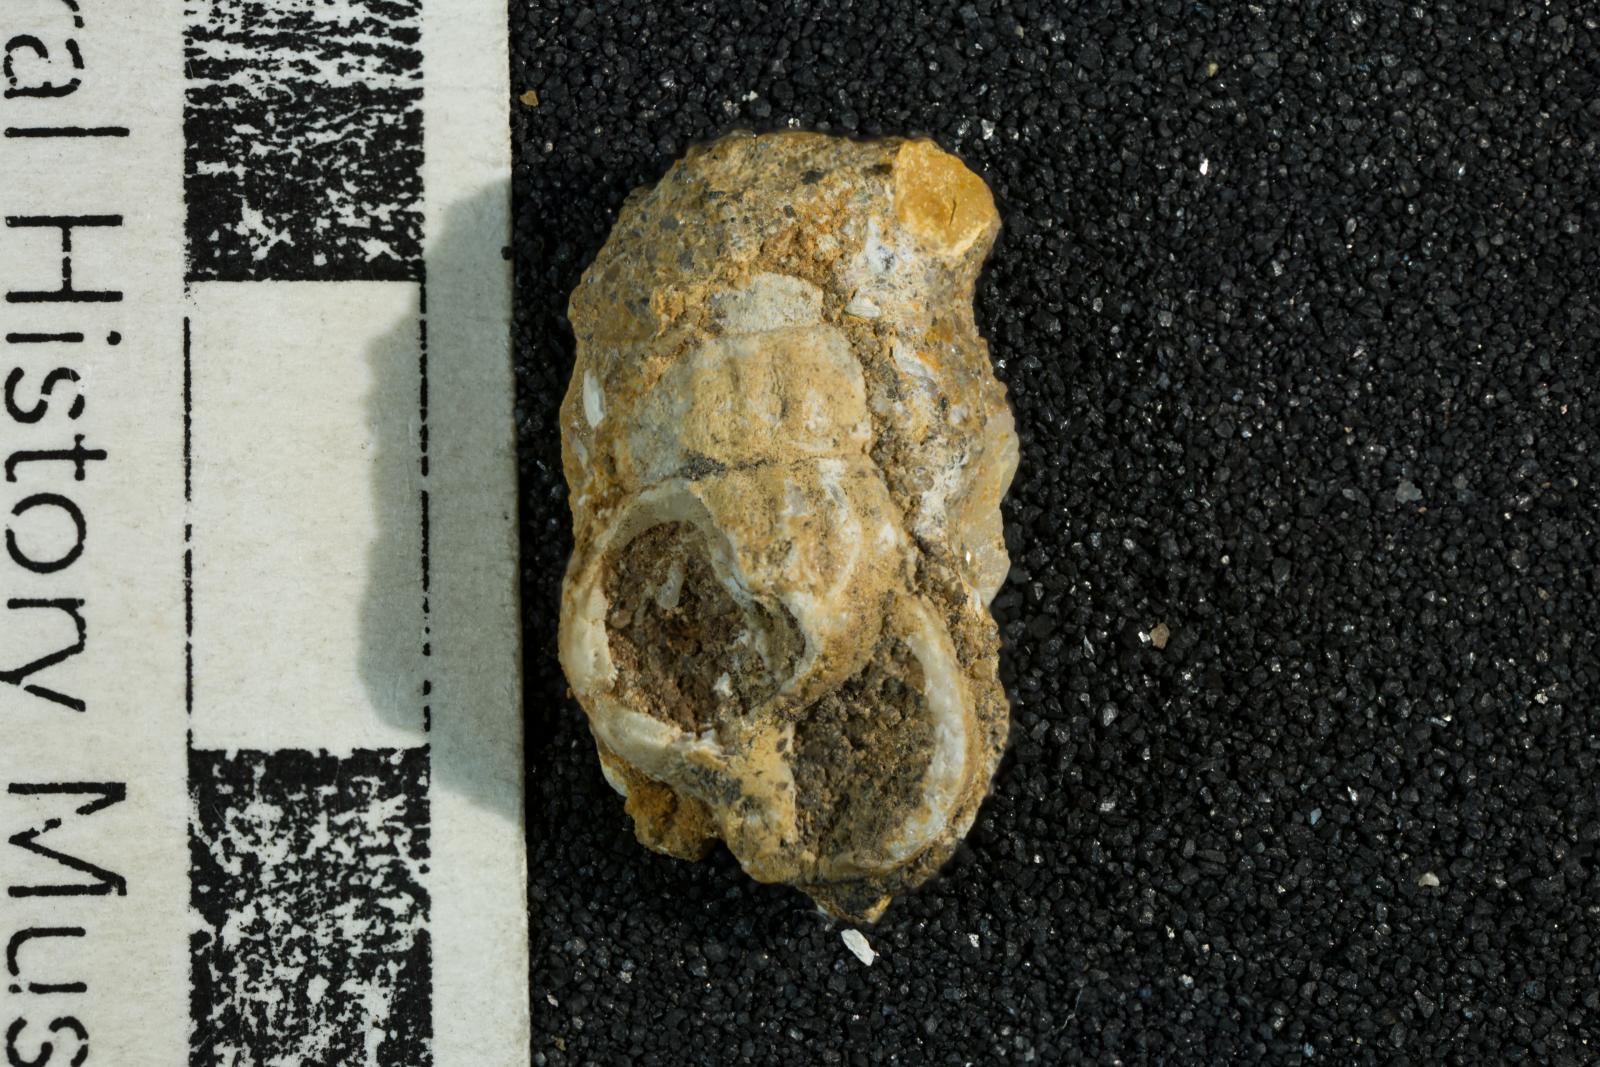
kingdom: Animalia
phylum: Mollusca
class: Gastropoda
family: Cerithiidae
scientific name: Cerithiidae
